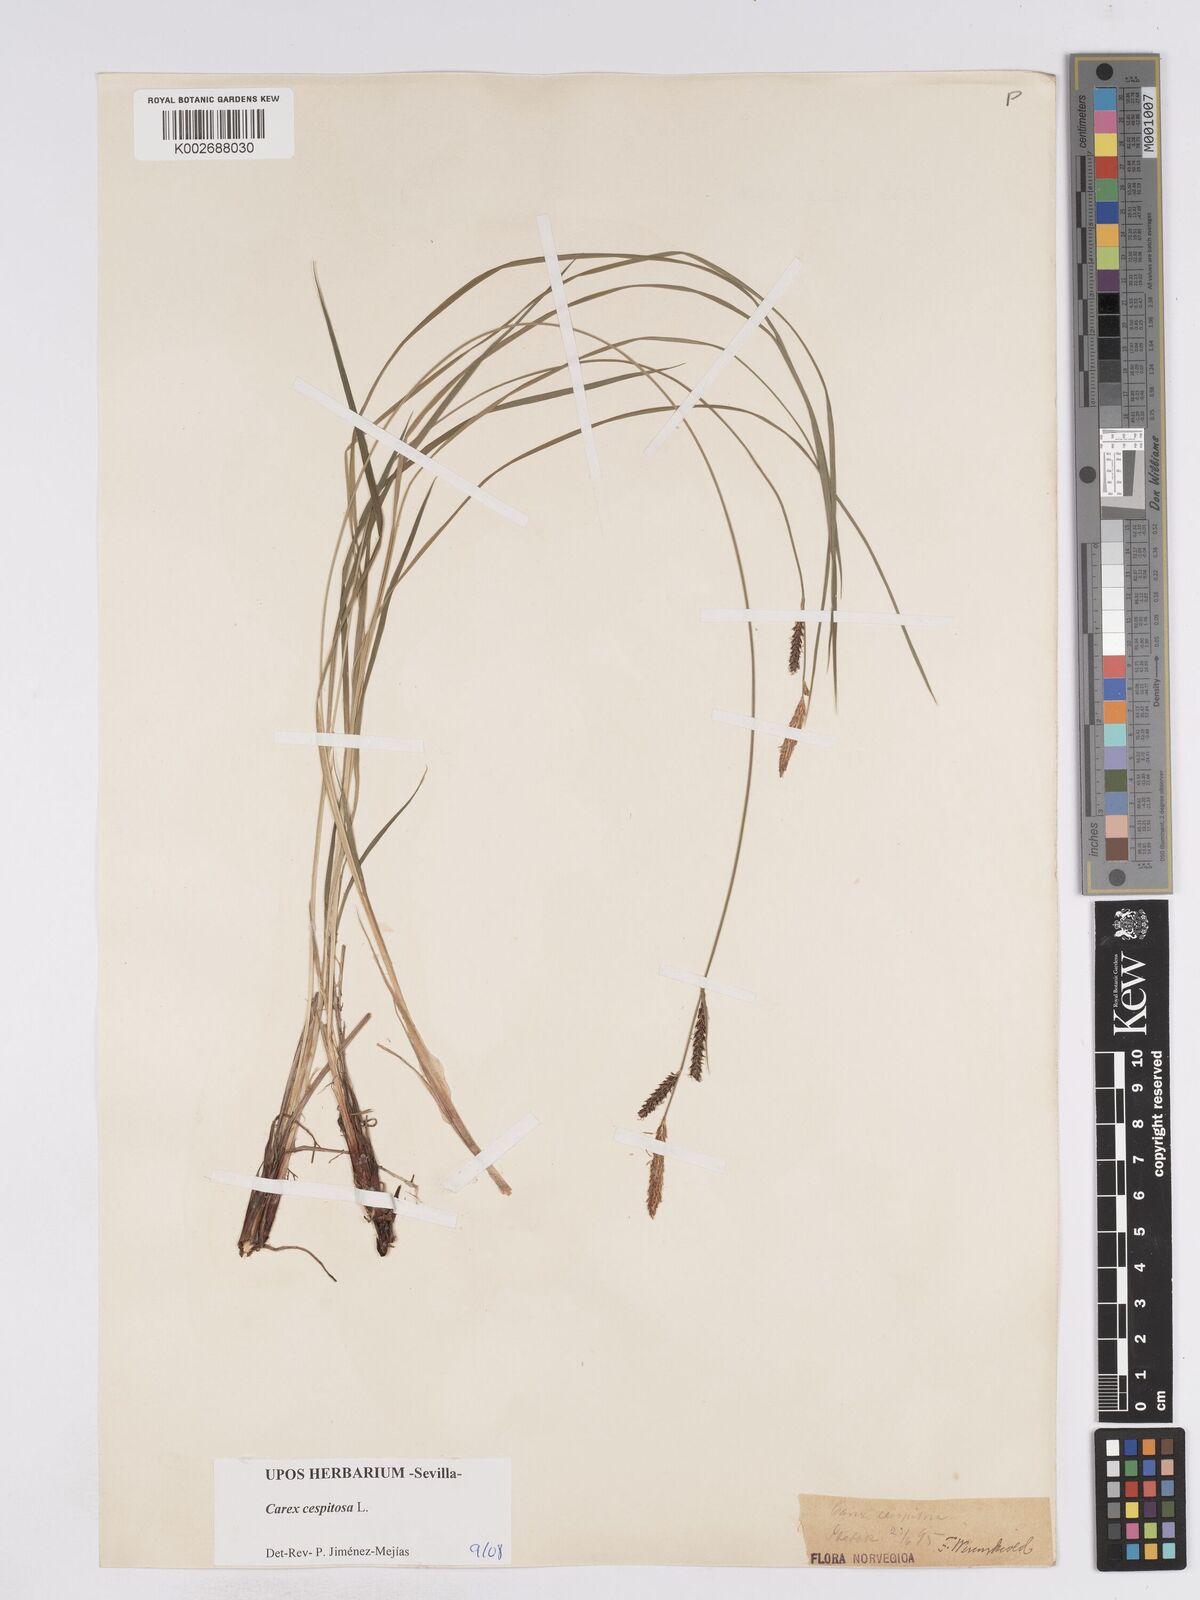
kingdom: Plantae
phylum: Tracheophyta
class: Liliopsida
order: Poales
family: Cyperaceae
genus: Carex
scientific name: Carex nigra
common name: Common sedge
